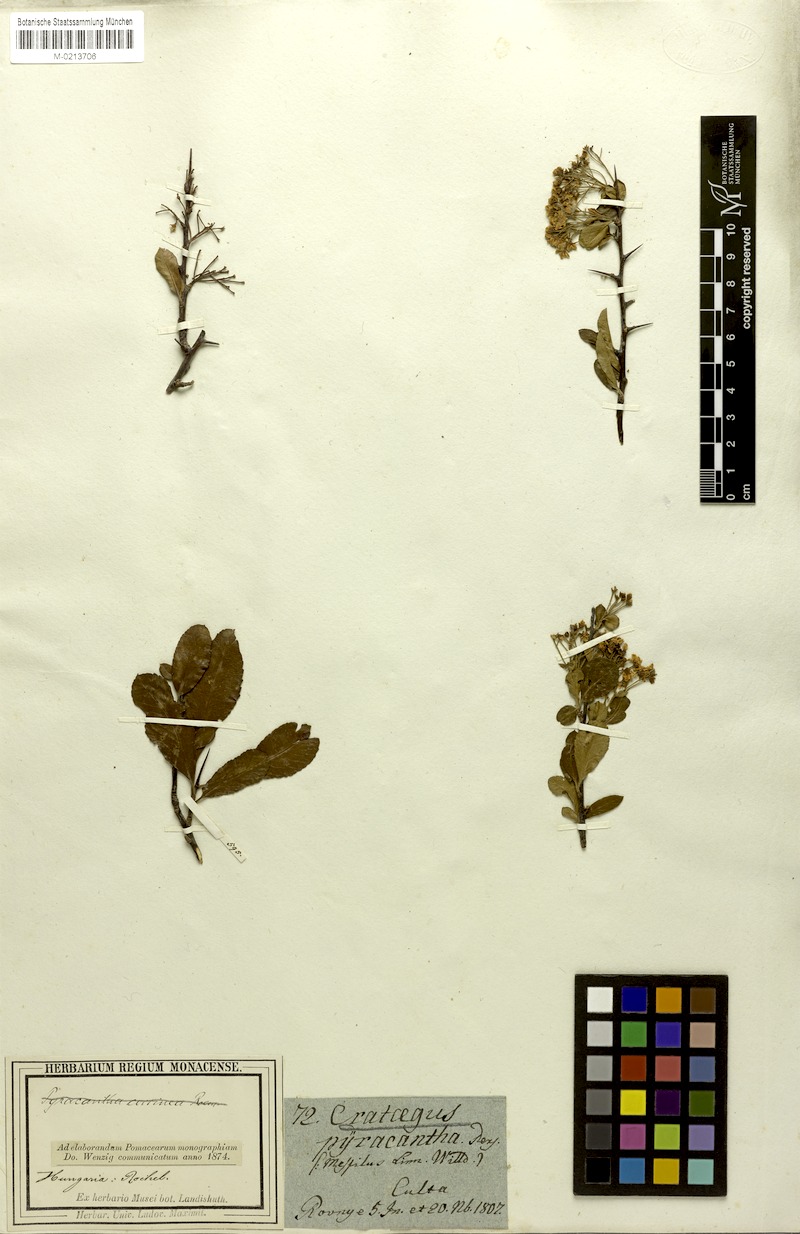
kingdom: Plantae
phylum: Tracheophyta
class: Magnoliopsida
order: Rosales
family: Rosaceae
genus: Pyracantha
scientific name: Pyracantha coccinea
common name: Firethorn
